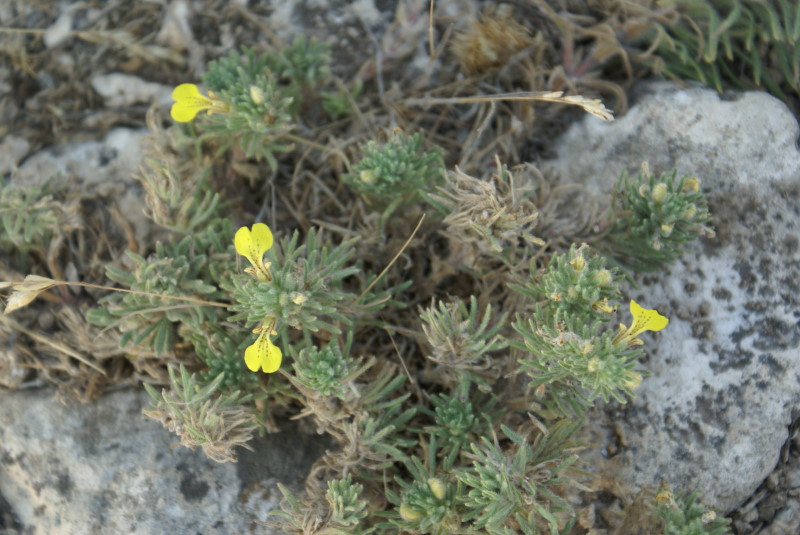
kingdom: Plantae
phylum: Tracheophyta
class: Magnoliopsida
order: Lamiales
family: Lamiaceae
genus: Ajuga
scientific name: Ajuga chamaepitys
